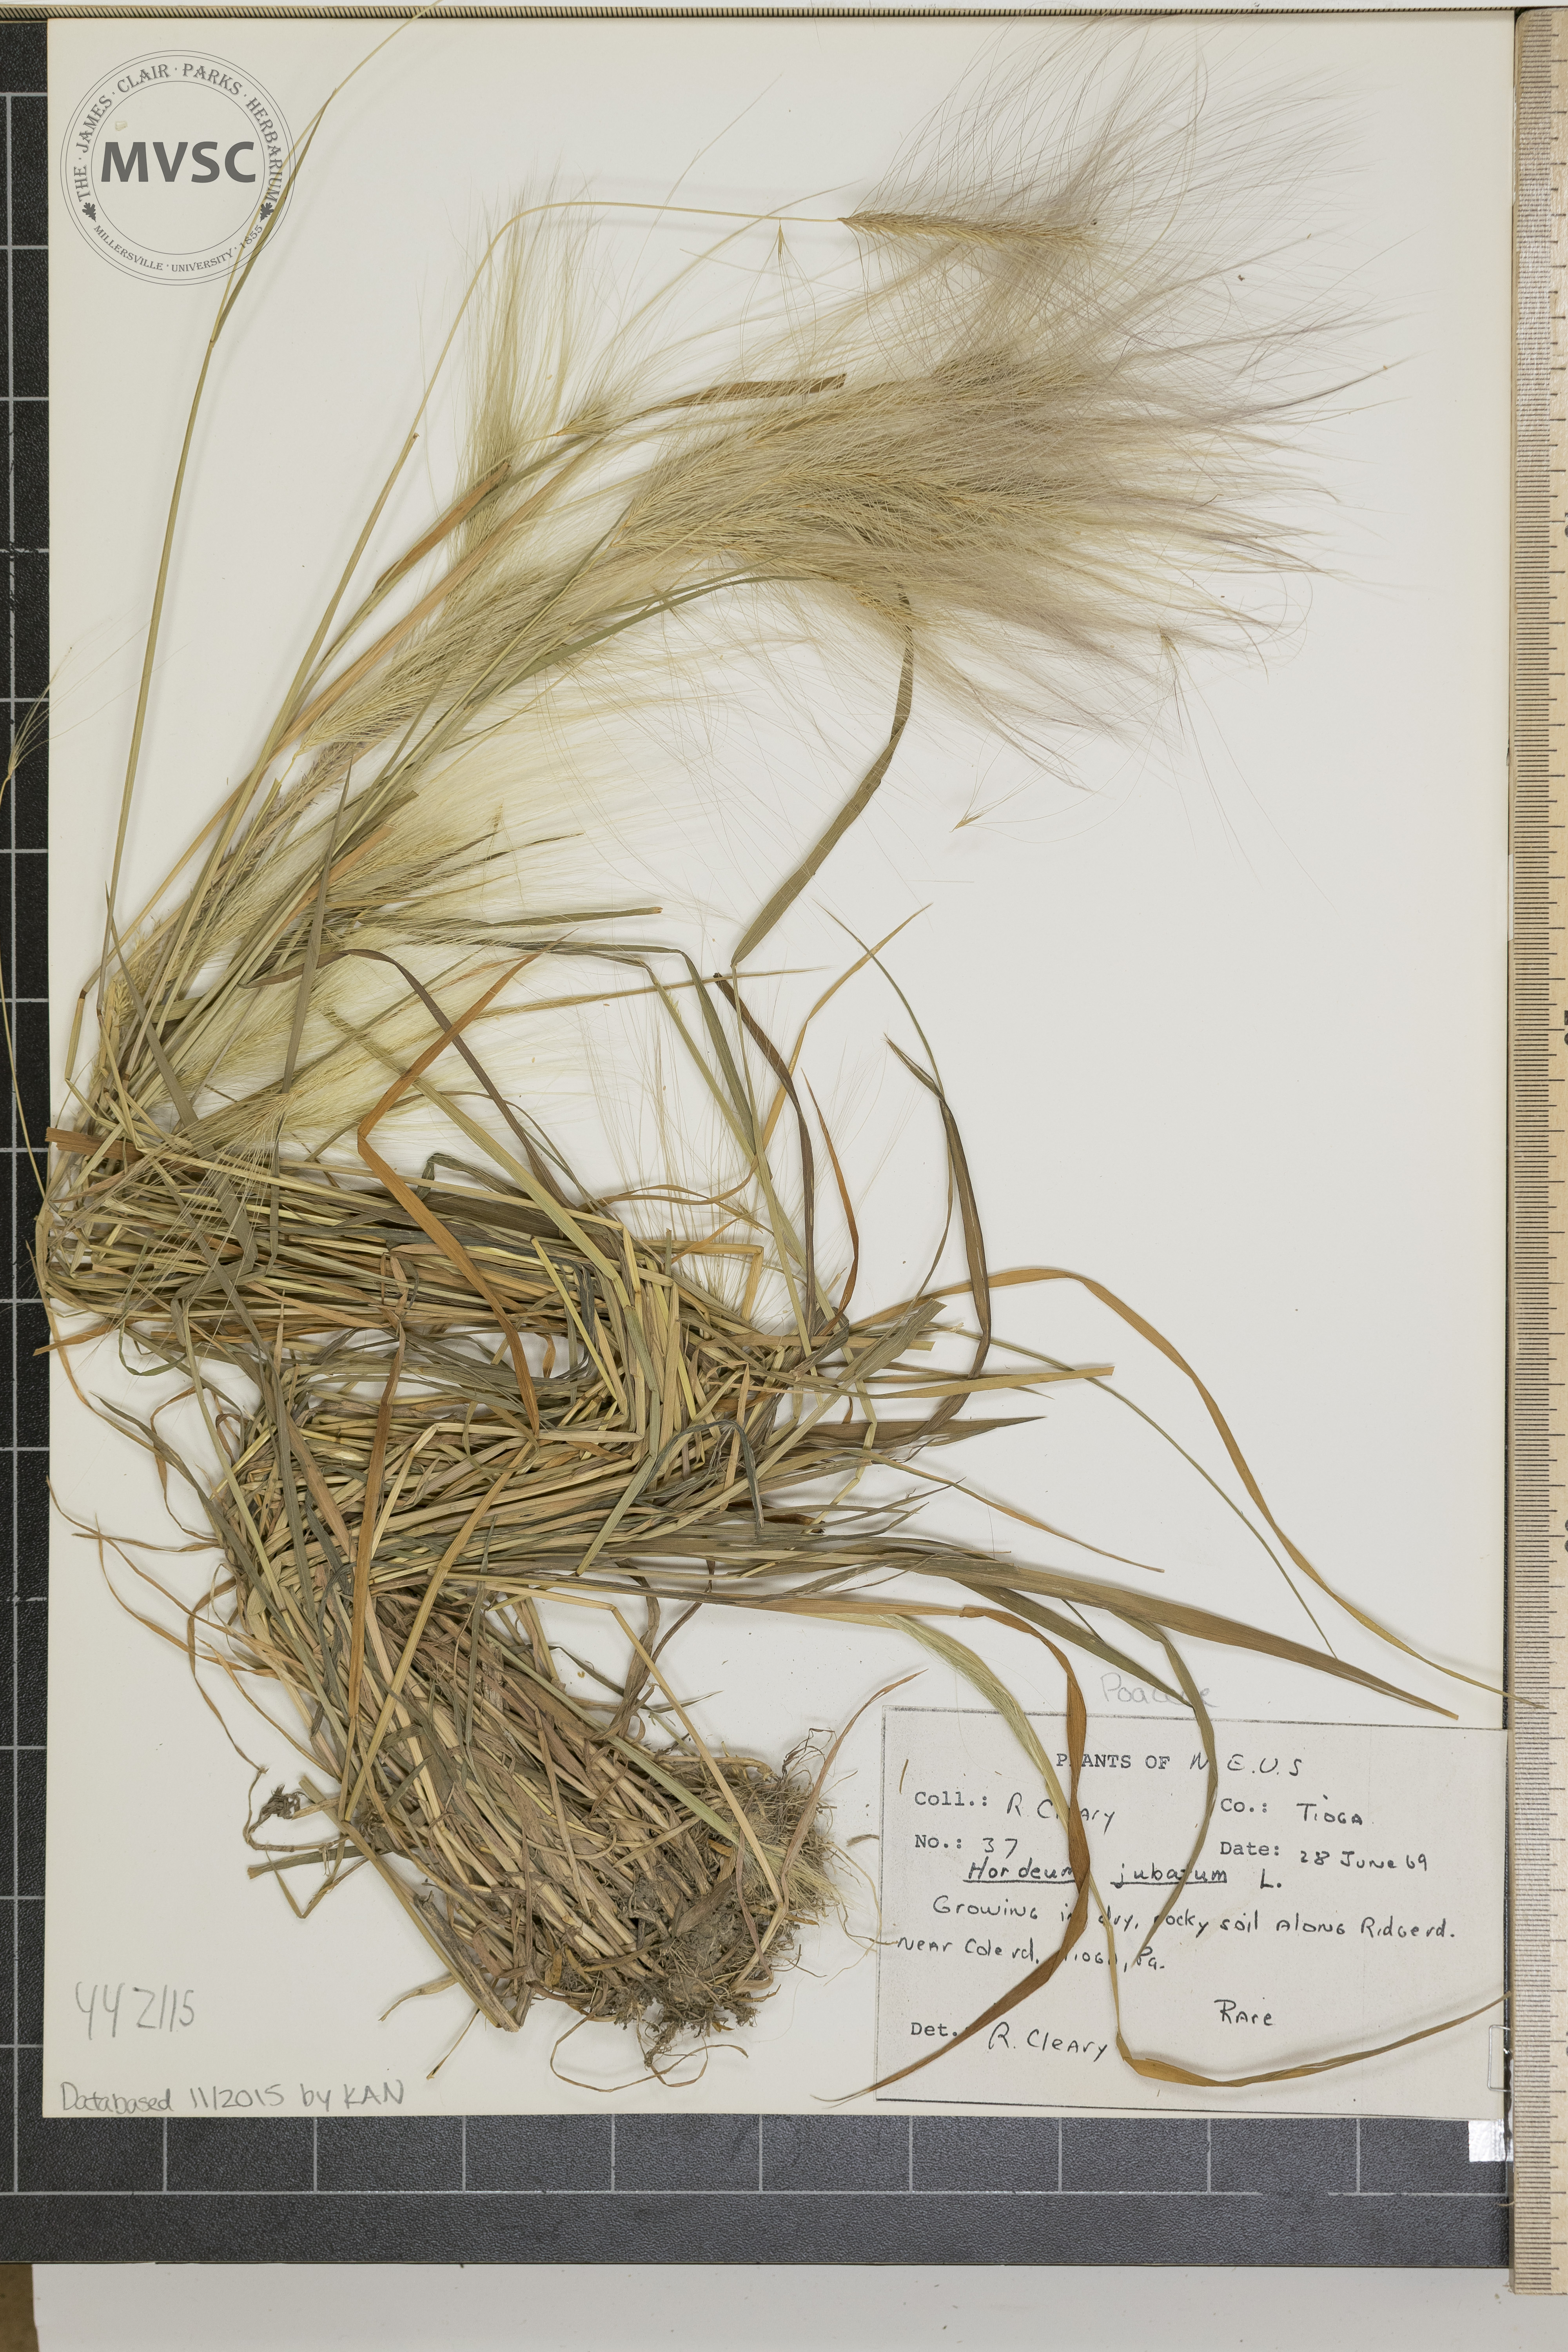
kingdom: Plantae
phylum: Tracheophyta
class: Liliopsida
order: Poales
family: Poaceae
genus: Hordeum
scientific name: Hordeum jubatum
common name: Foxtail barley
